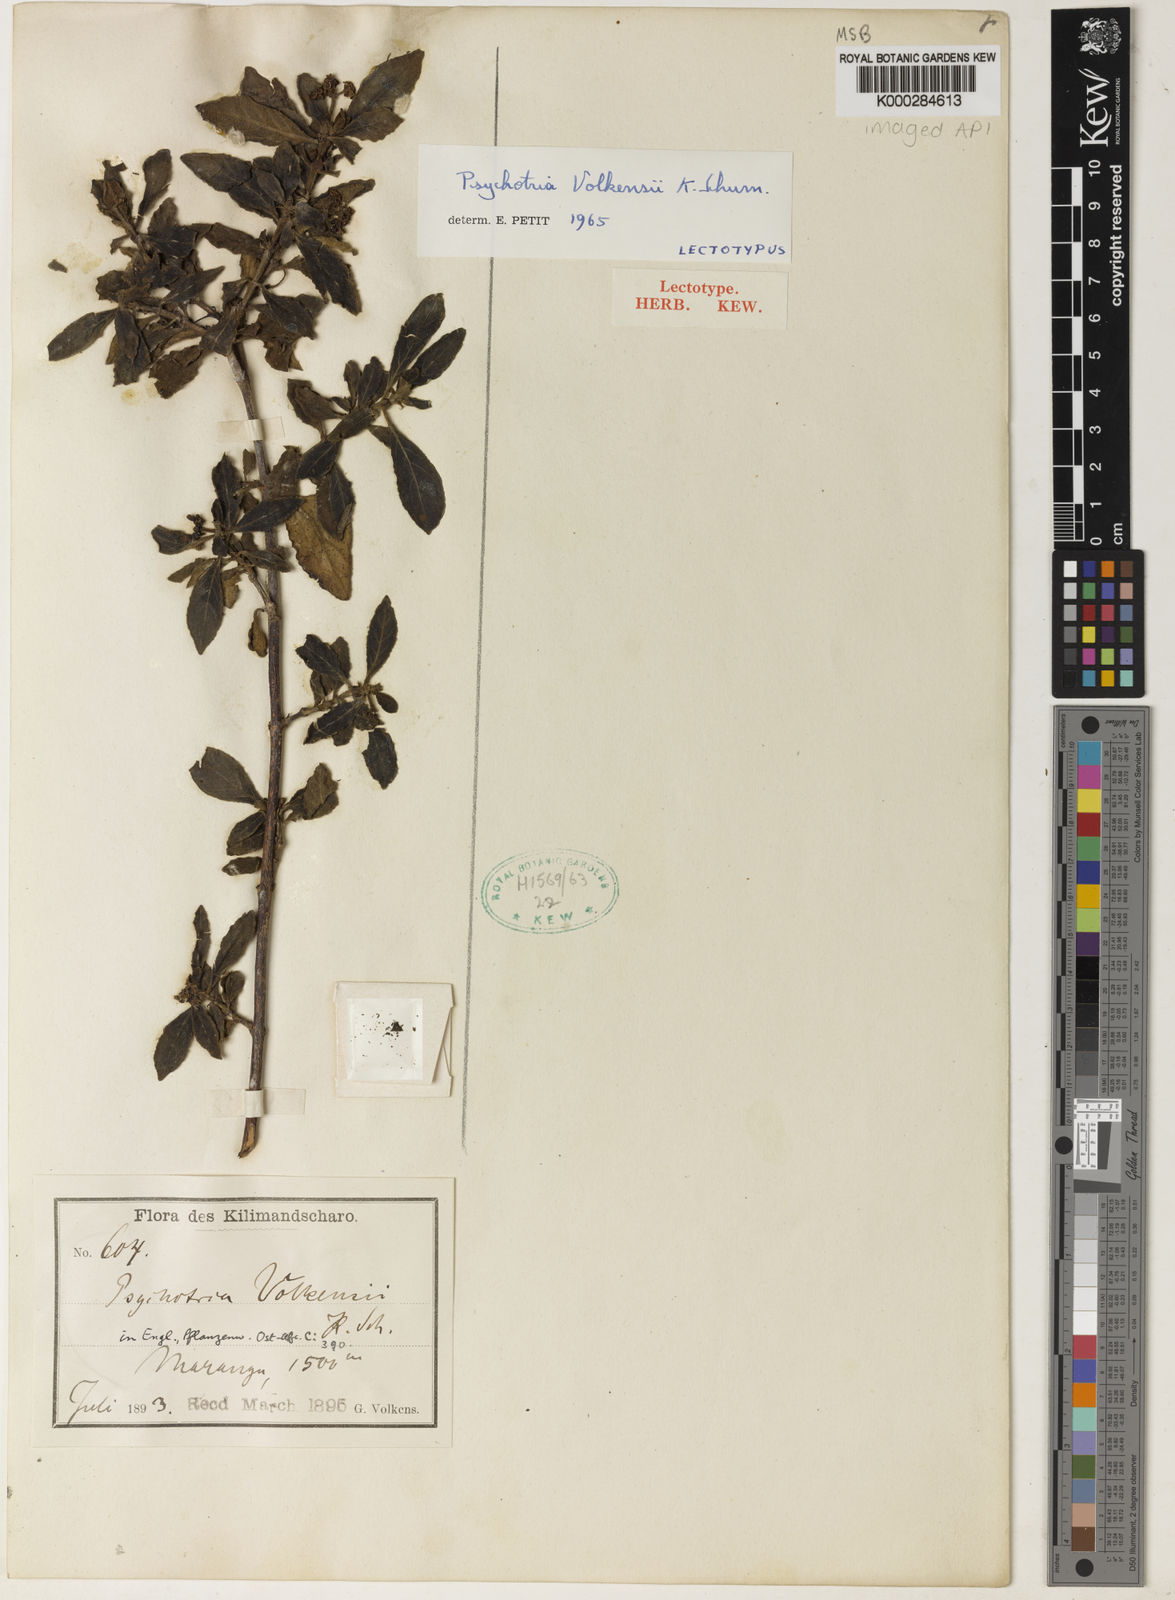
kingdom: Plantae
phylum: Tracheophyta
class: Magnoliopsida
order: Gentianales
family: Rubiaceae
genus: Psychotria
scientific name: Psychotria punctata
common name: Dotted wild coffee
